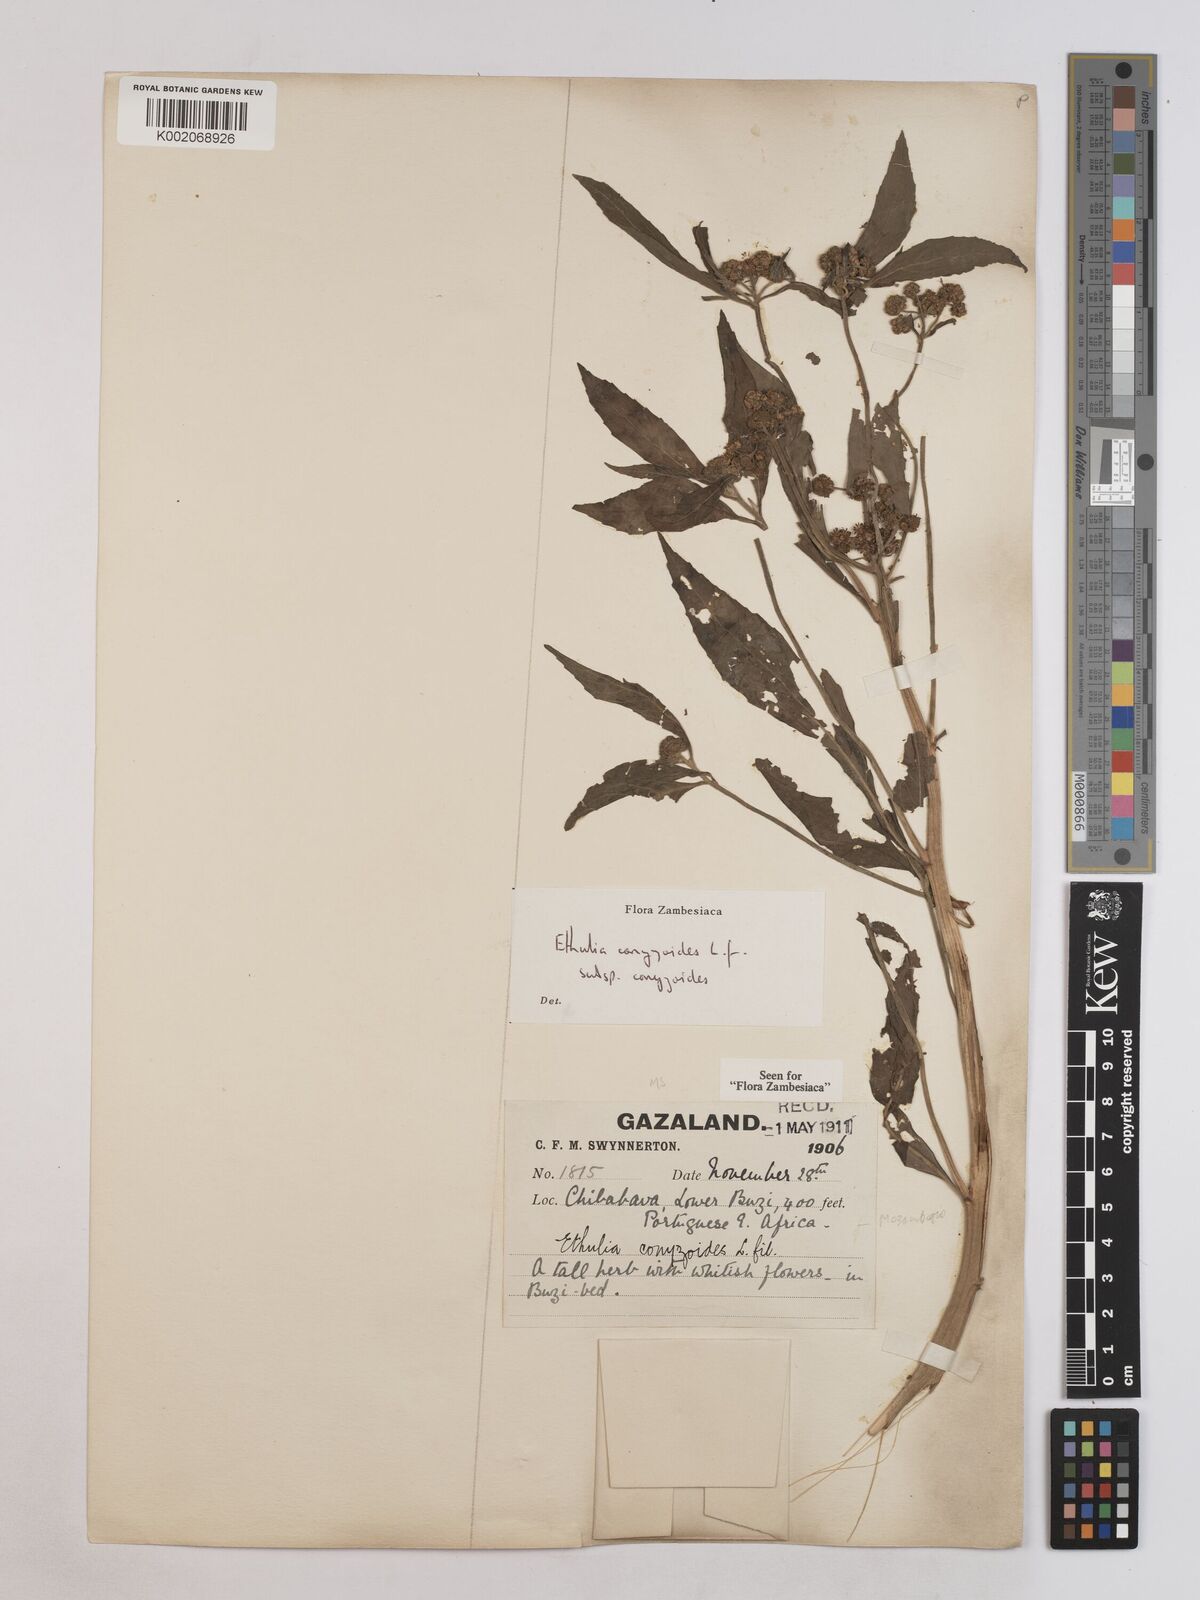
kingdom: Plantae
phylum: Tracheophyta
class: Magnoliopsida
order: Asterales
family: Asteraceae
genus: Ethulia
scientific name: Ethulia conyzoides
